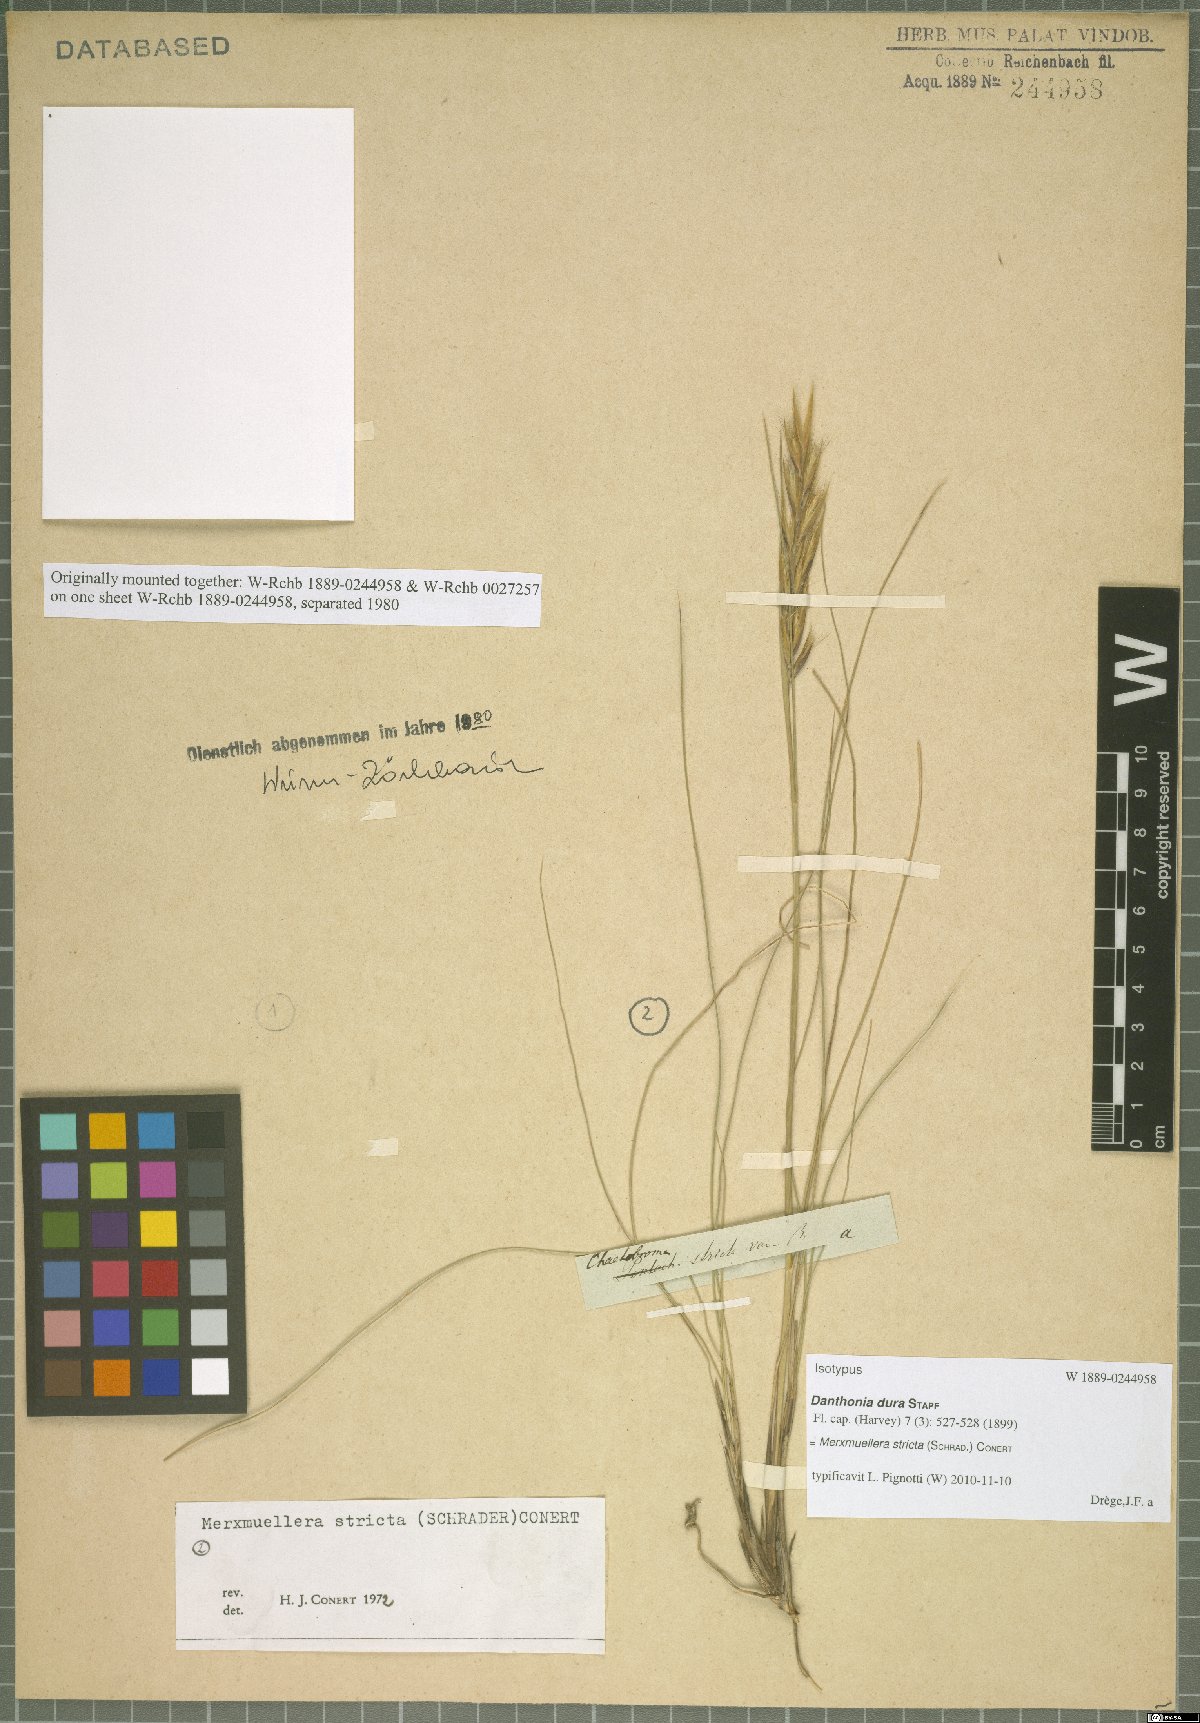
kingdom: Plantae
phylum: Tracheophyta
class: Liliopsida
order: Poales
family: Poaceae
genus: Tenaxia
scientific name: Tenaxia stricta
